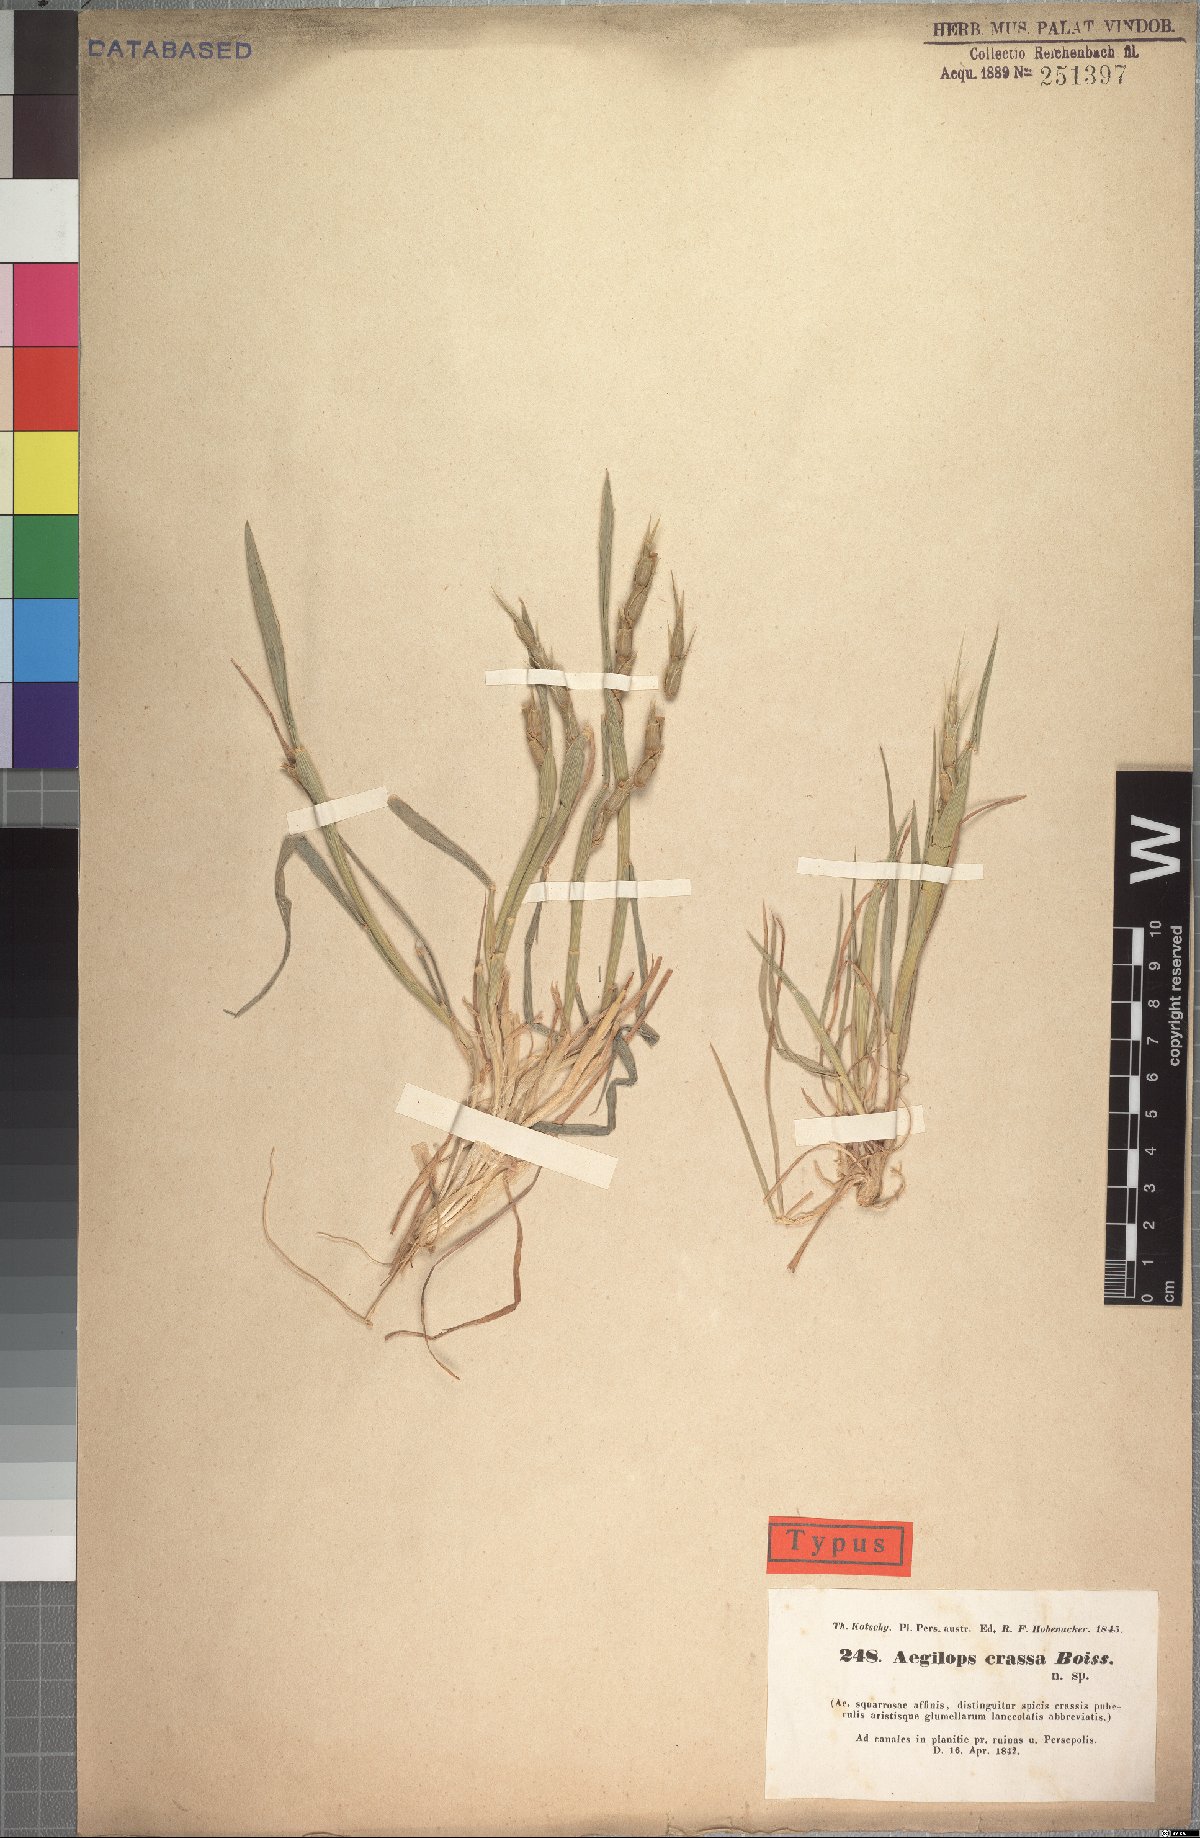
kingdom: Plantae
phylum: Tracheophyta
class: Liliopsida
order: Poales
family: Poaceae
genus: Aegilops
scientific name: Aegilops crassa
